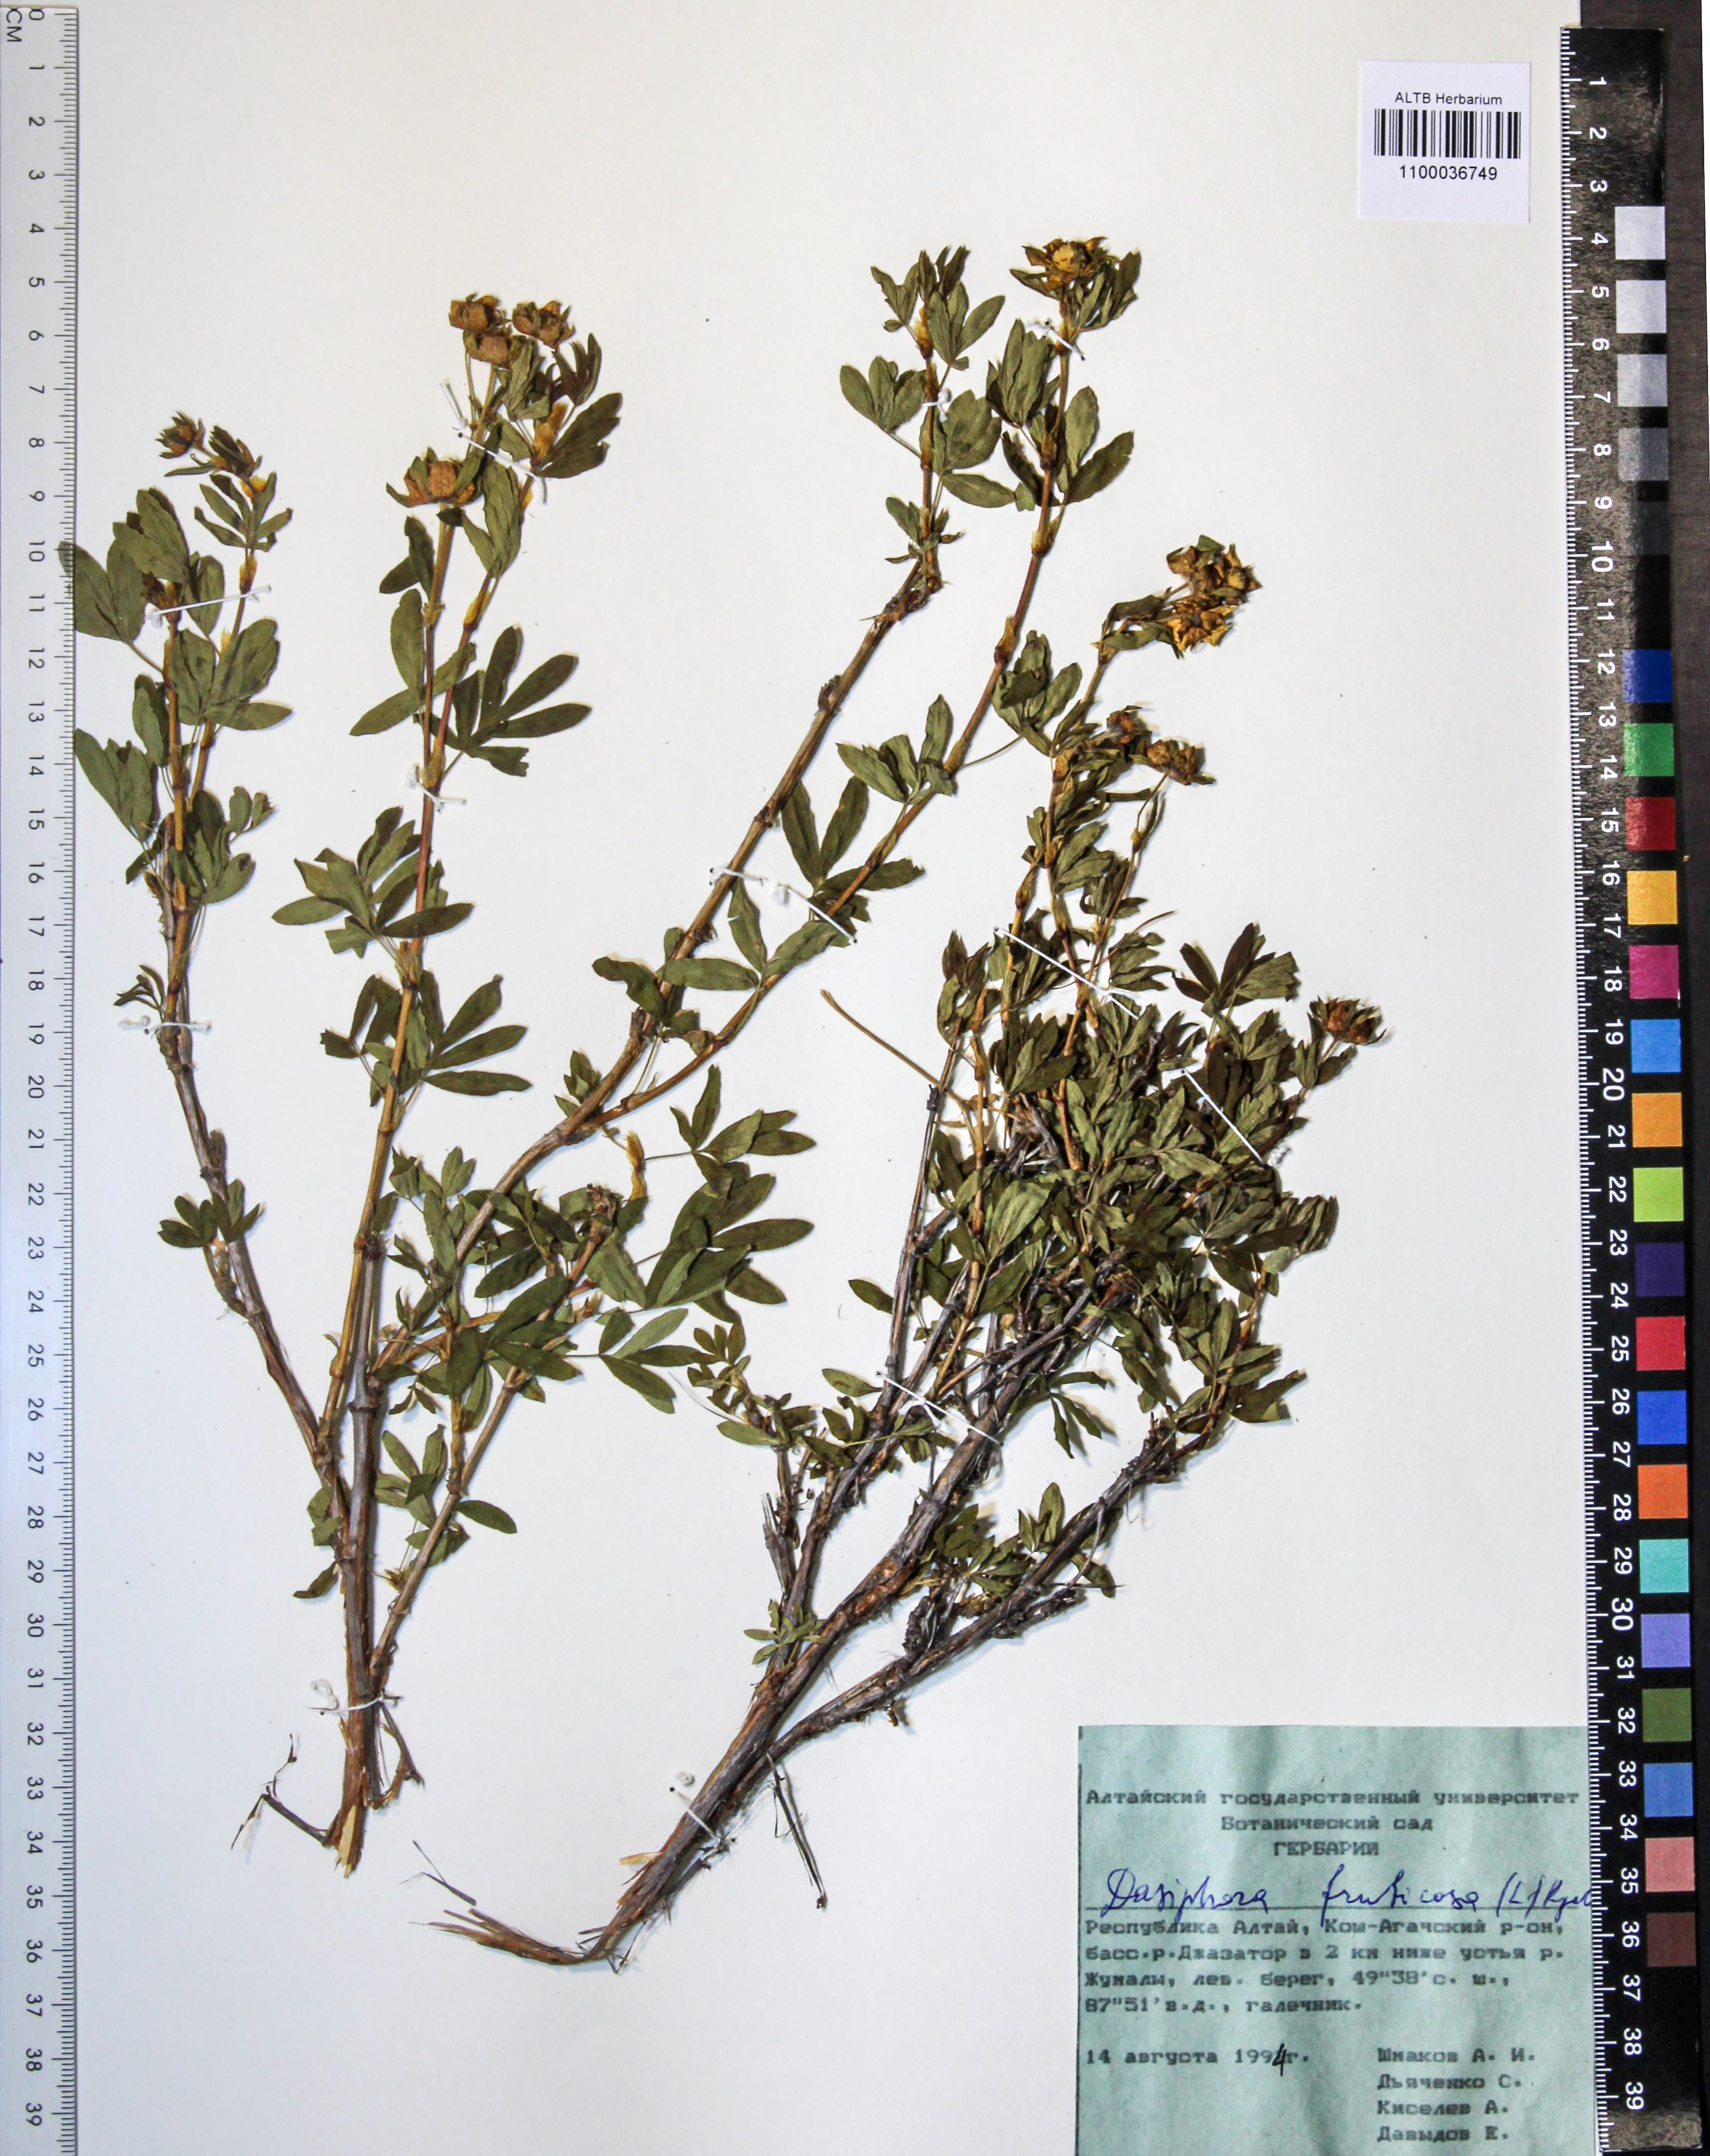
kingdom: Plantae
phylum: Tracheophyta
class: Magnoliopsida
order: Rosales
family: Rosaceae
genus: Dasiphora
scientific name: Dasiphora fruticosa
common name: Shrubby cinquefoil
